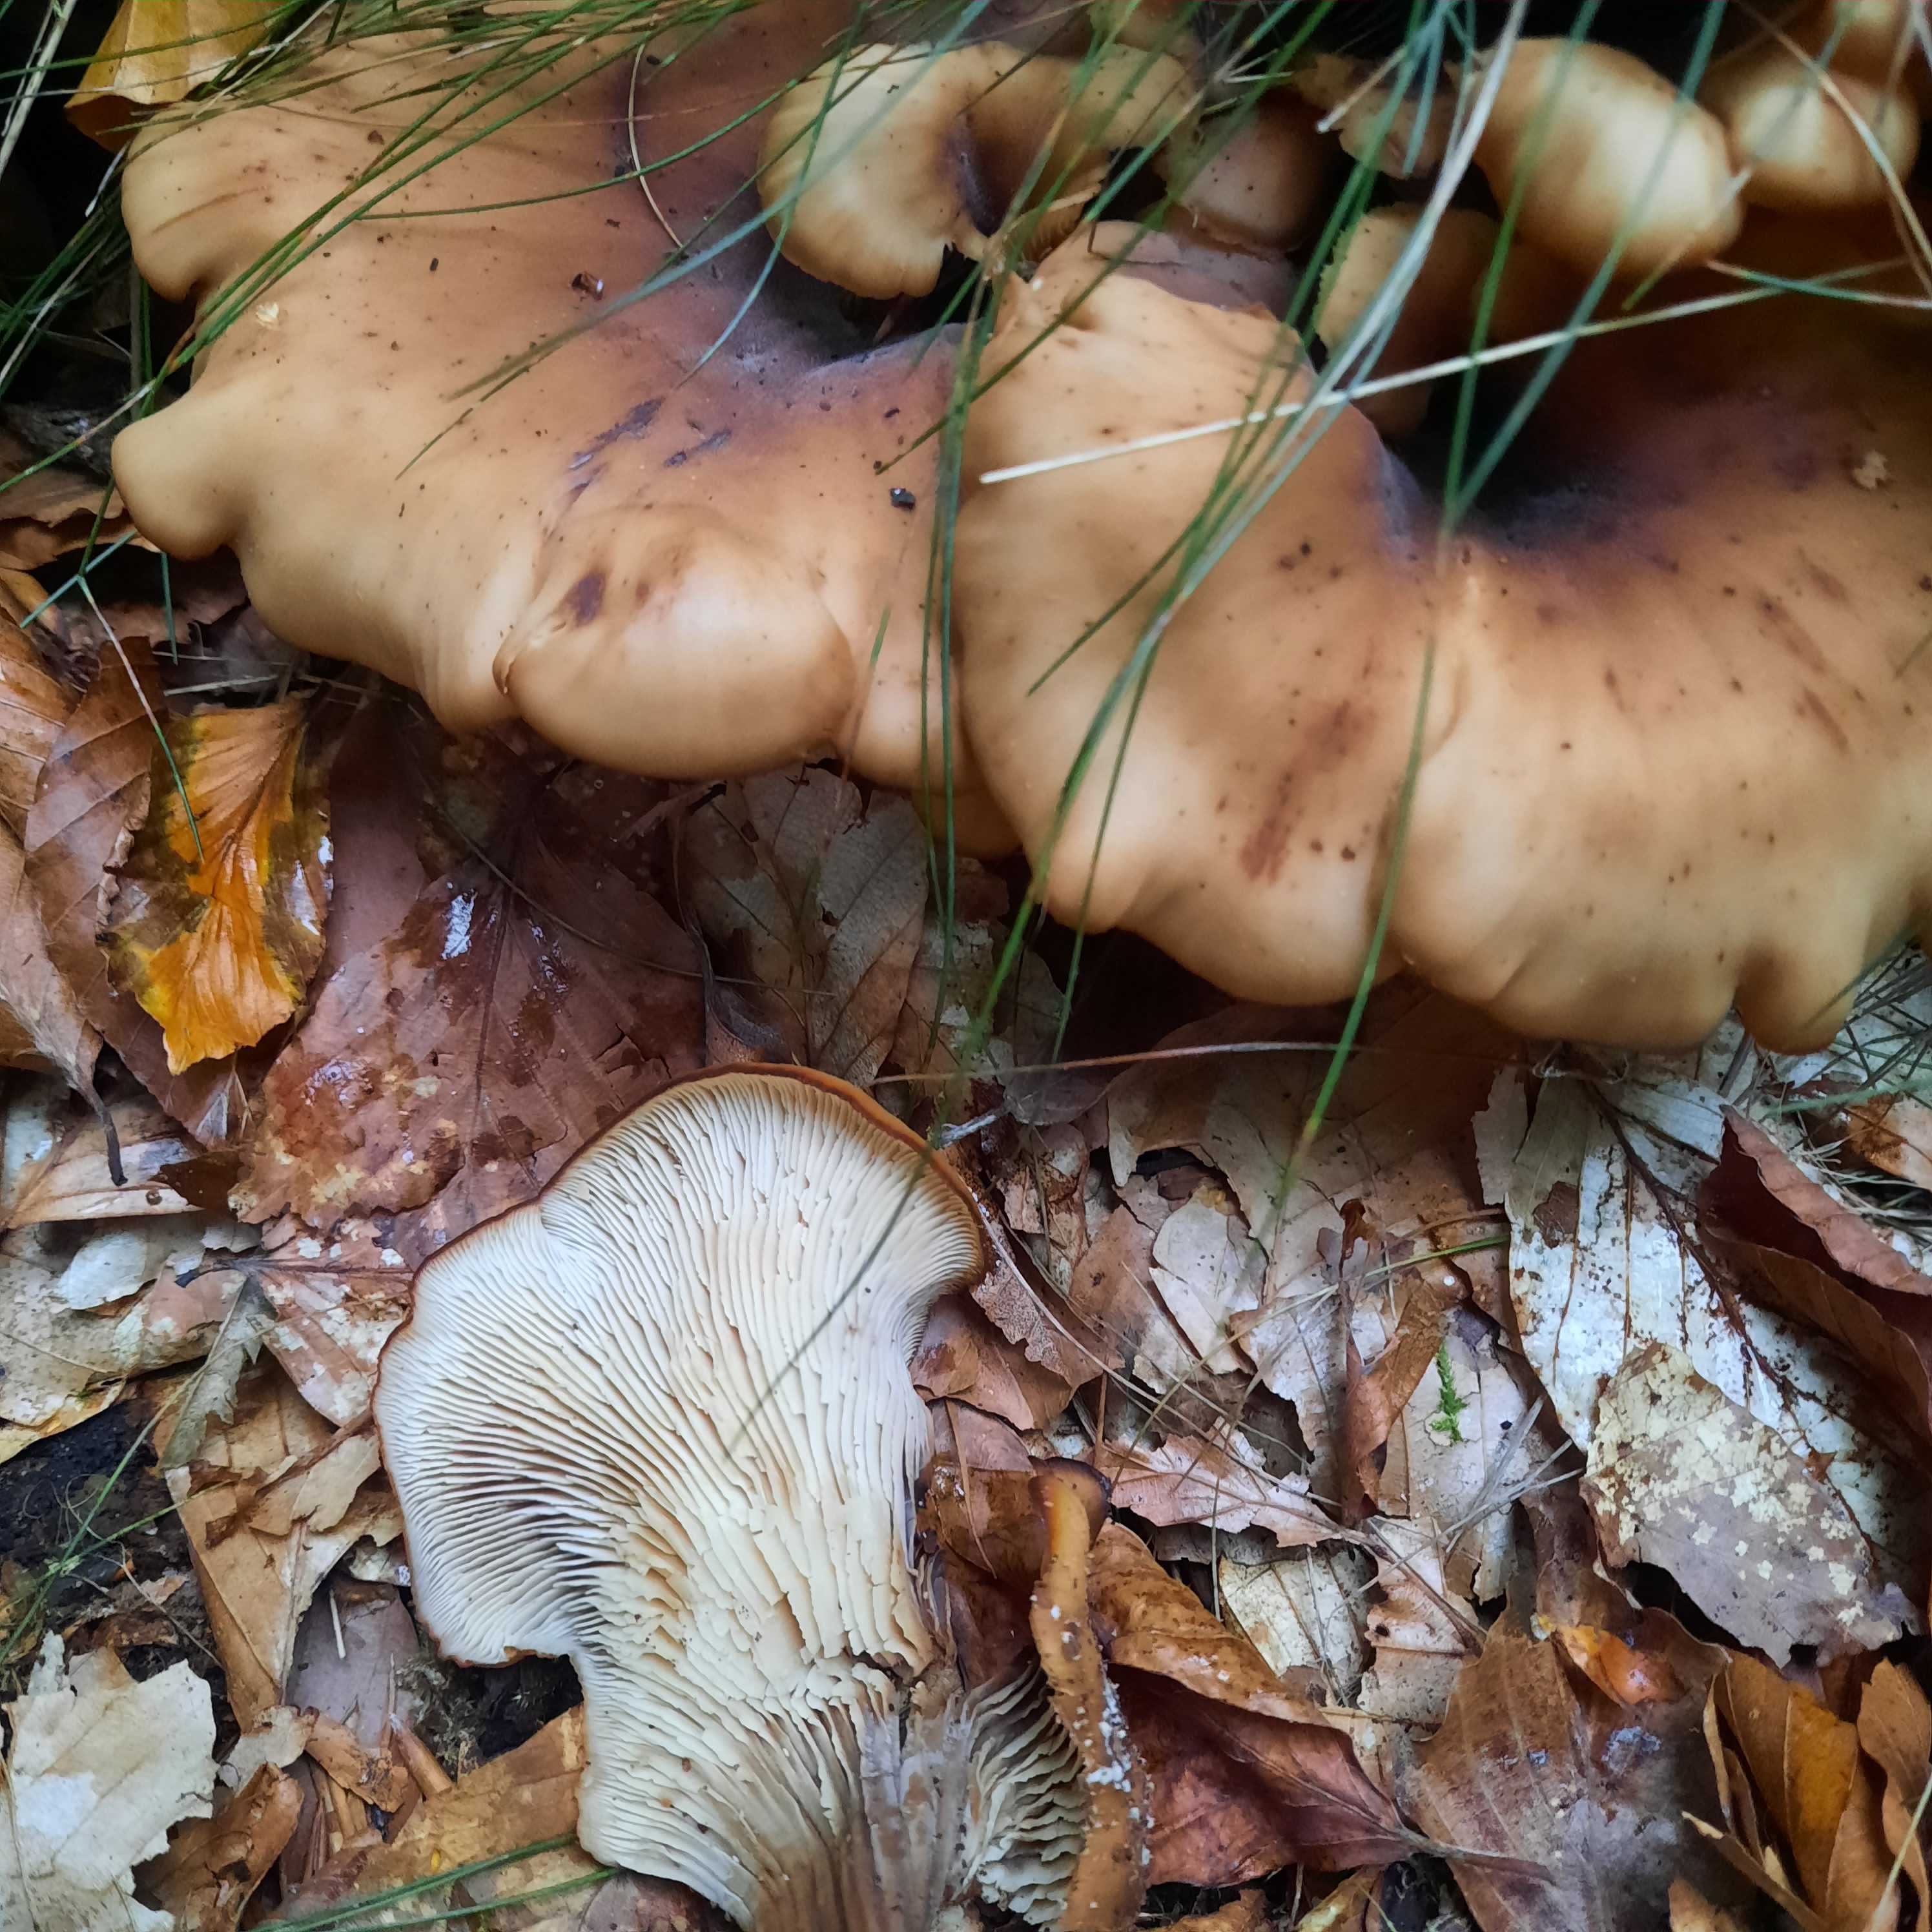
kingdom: Fungi
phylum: Basidiomycota
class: Agaricomycetes
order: Russulales
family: Auriscalpiaceae
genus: Lentinellus
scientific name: Lentinellus cochleatus
